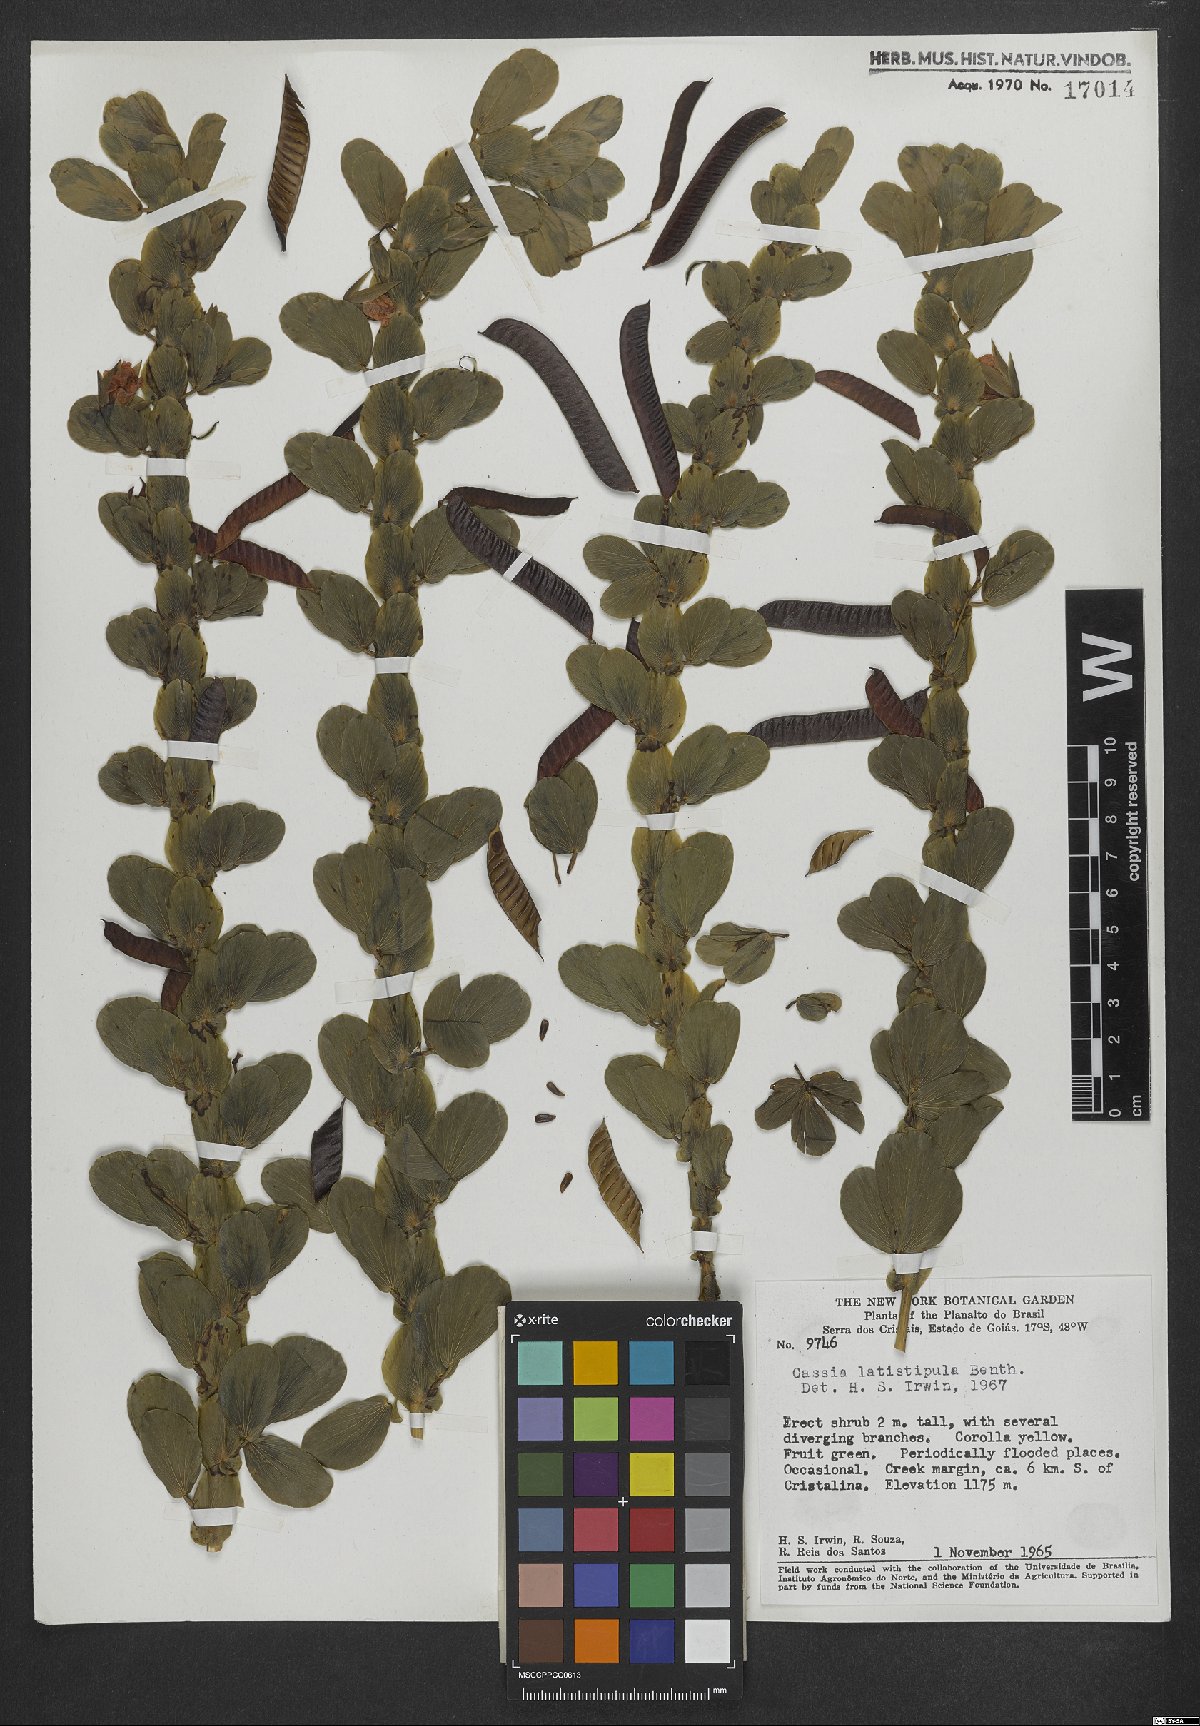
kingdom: Plantae
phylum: Tracheophyta
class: Magnoliopsida
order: Fabales
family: Fabaceae
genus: Chamaecrista
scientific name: Chamaecrista desvauxii
